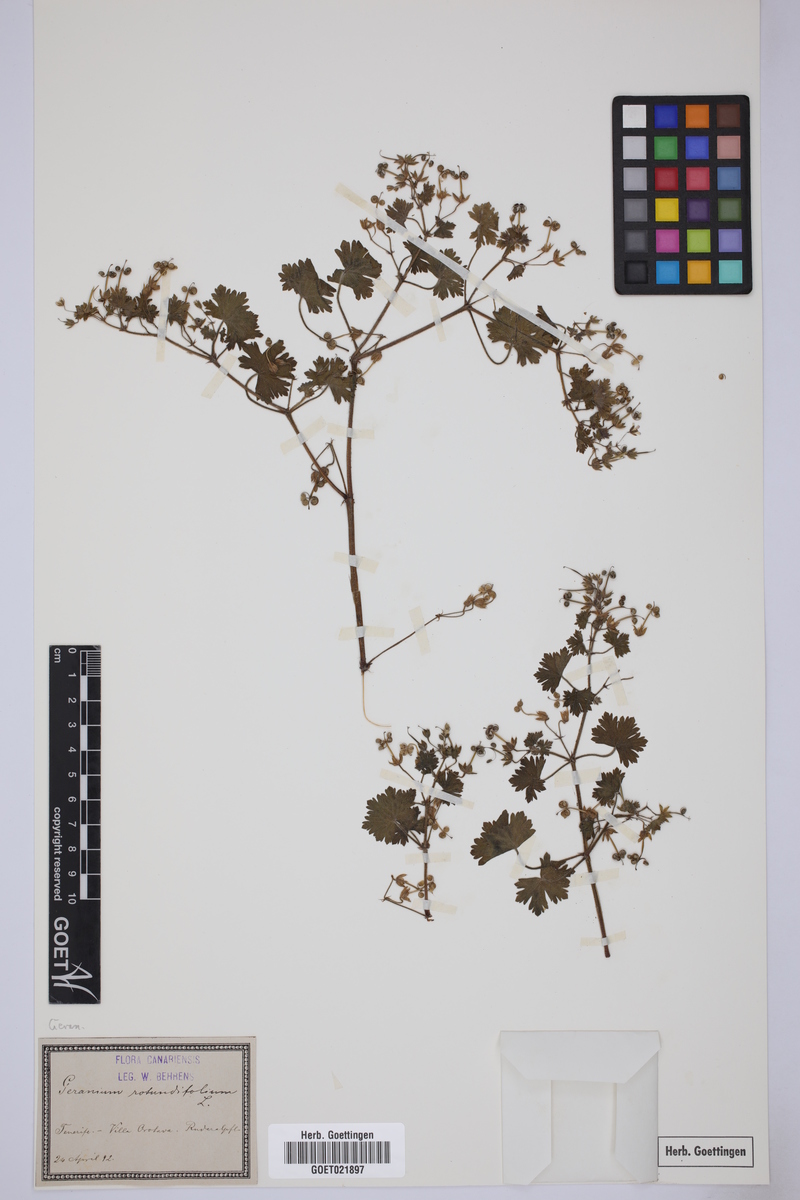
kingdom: Plantae
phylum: Tracheophyta
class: Magnoliopsida
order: Geraniales
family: Geraniaceae
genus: Geranium
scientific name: Geranium rotundifolium
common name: Round-leaved crane's-bill
